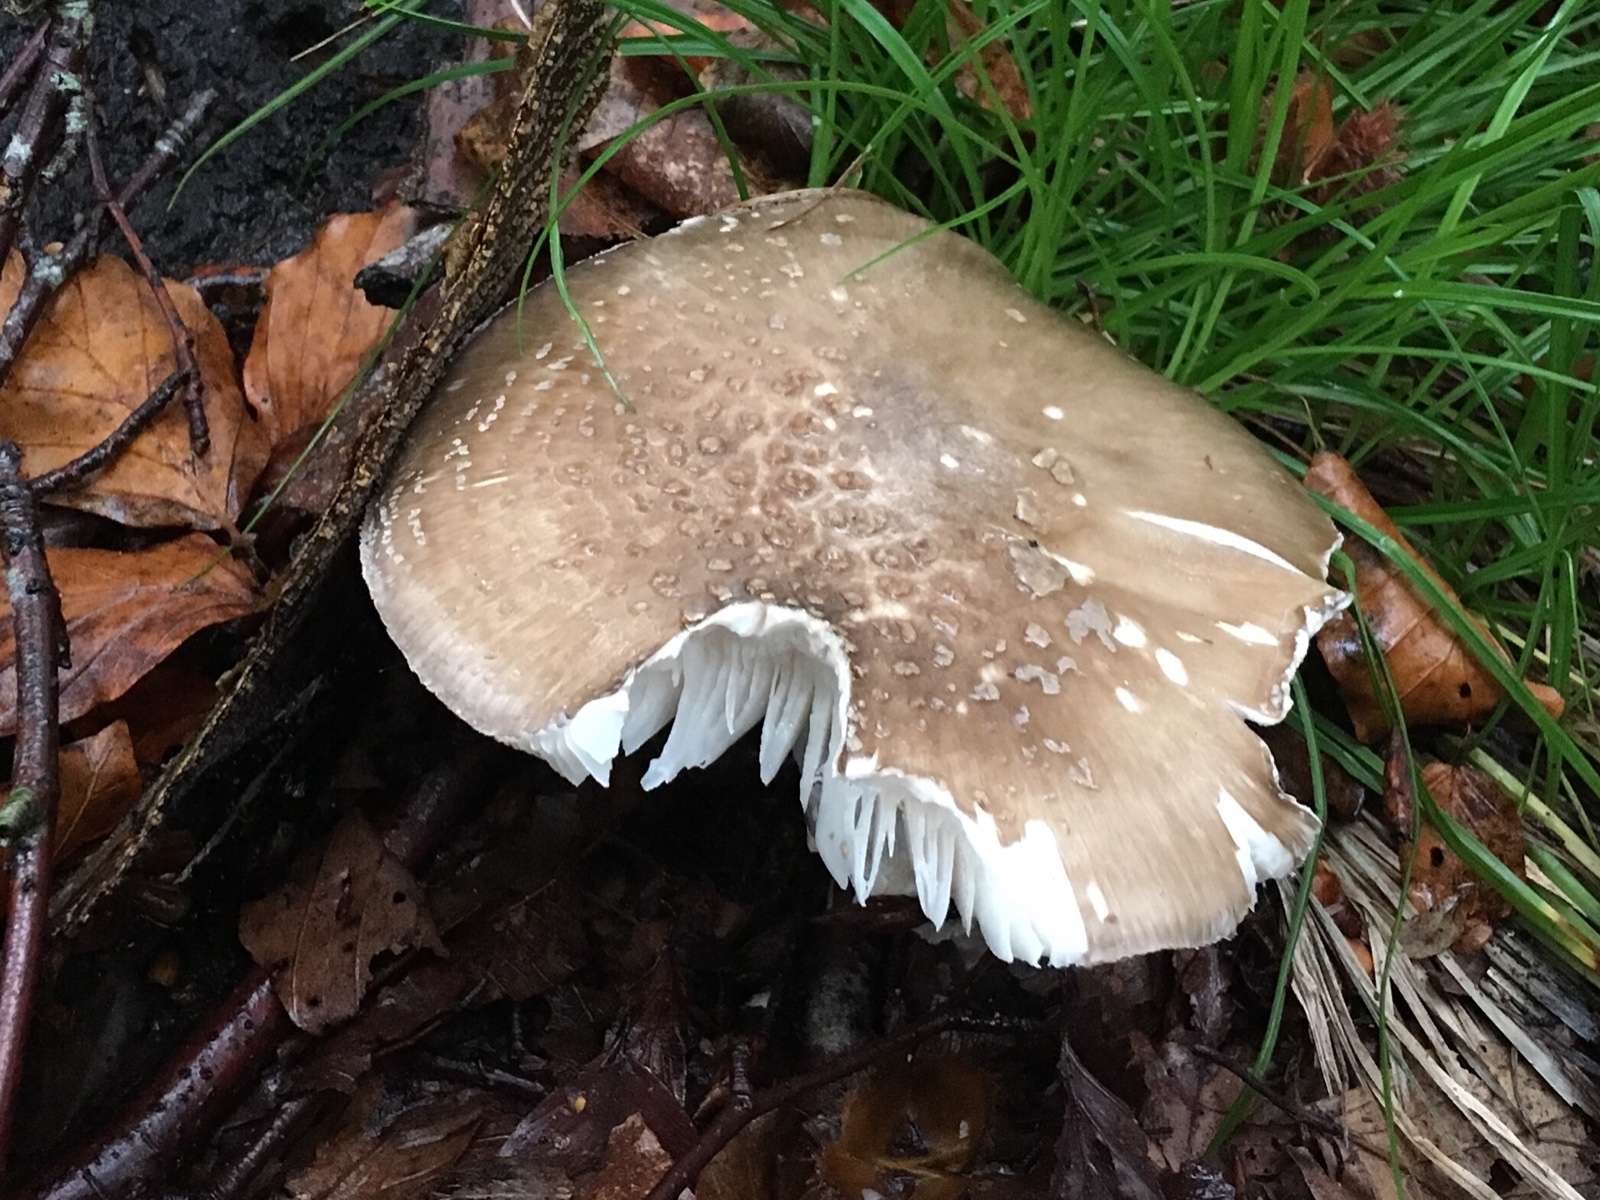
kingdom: Fungi
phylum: Basidiomycota
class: Agaricomycetes
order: Agaricales
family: Amanitaceae
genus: Amanita
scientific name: Amanita
